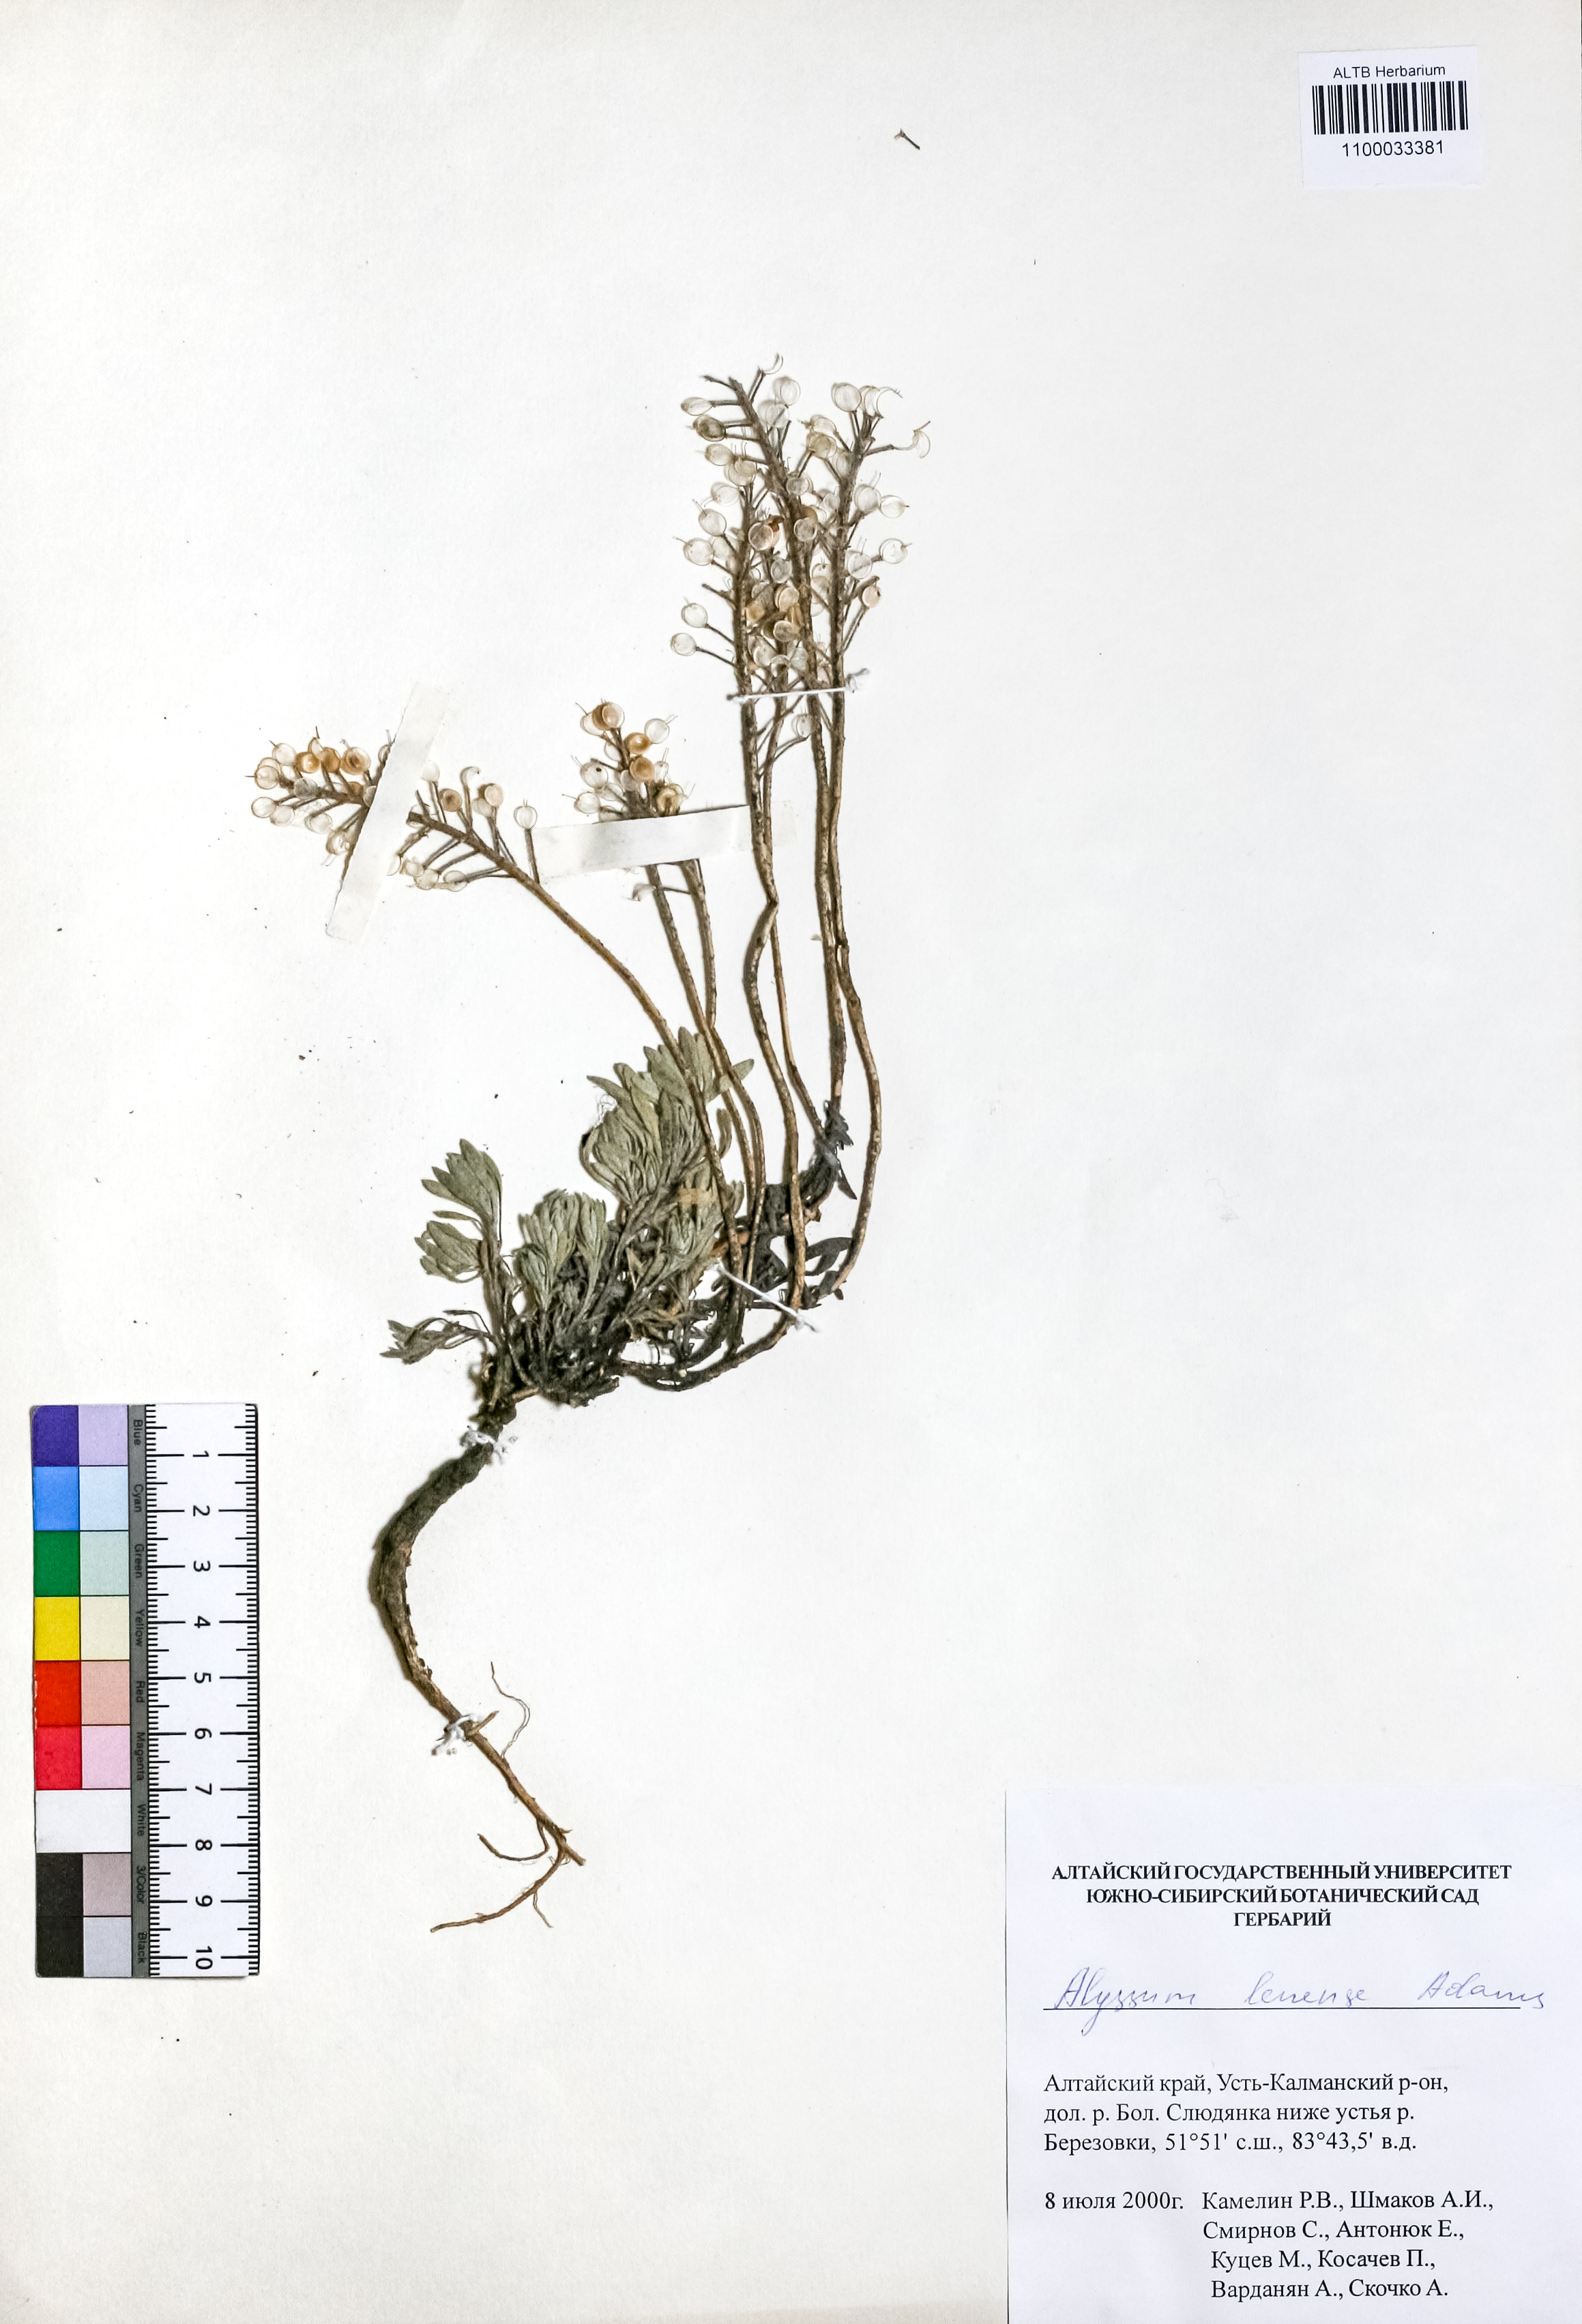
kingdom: Plantae
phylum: Tracheophyta
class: Magnoliopsida
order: Brassicales
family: Brassicaceae
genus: Alyssum
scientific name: Alyssum lenense
